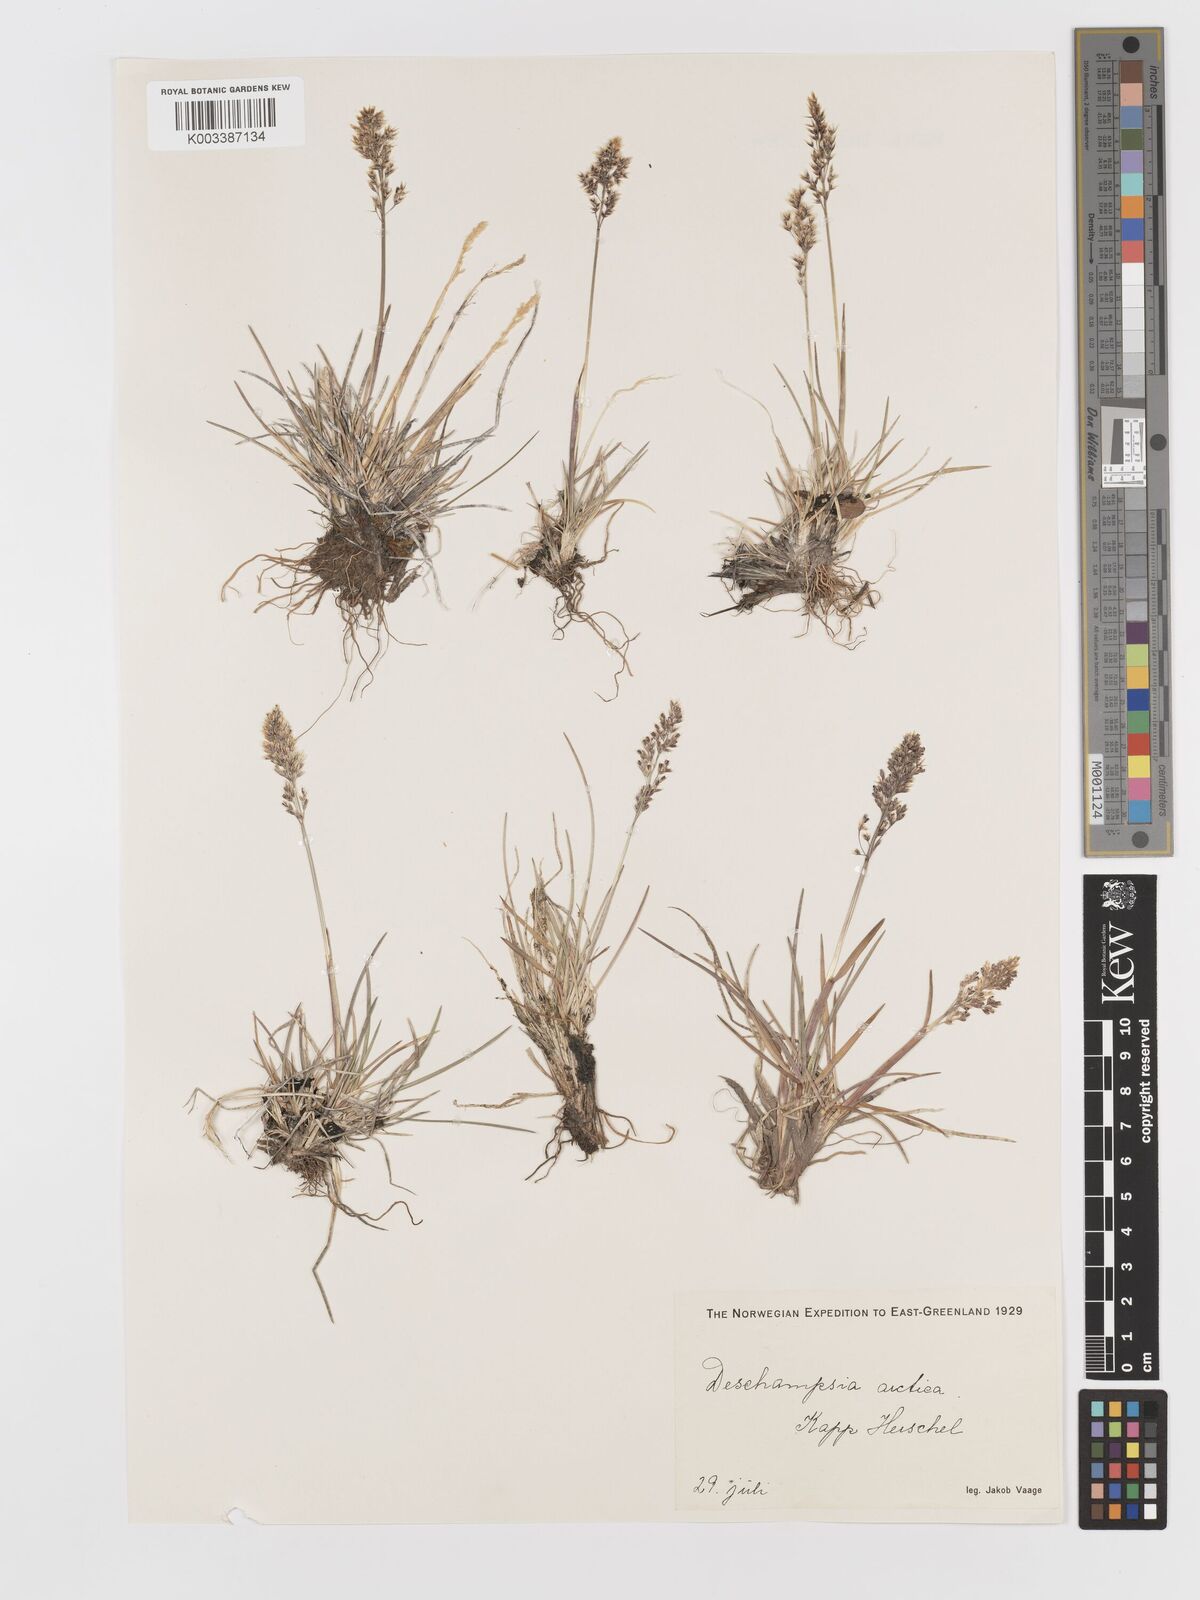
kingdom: Plantae
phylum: Tracheophyta
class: Liliopsida
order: Poales
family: Poaceae
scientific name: Poaceae
